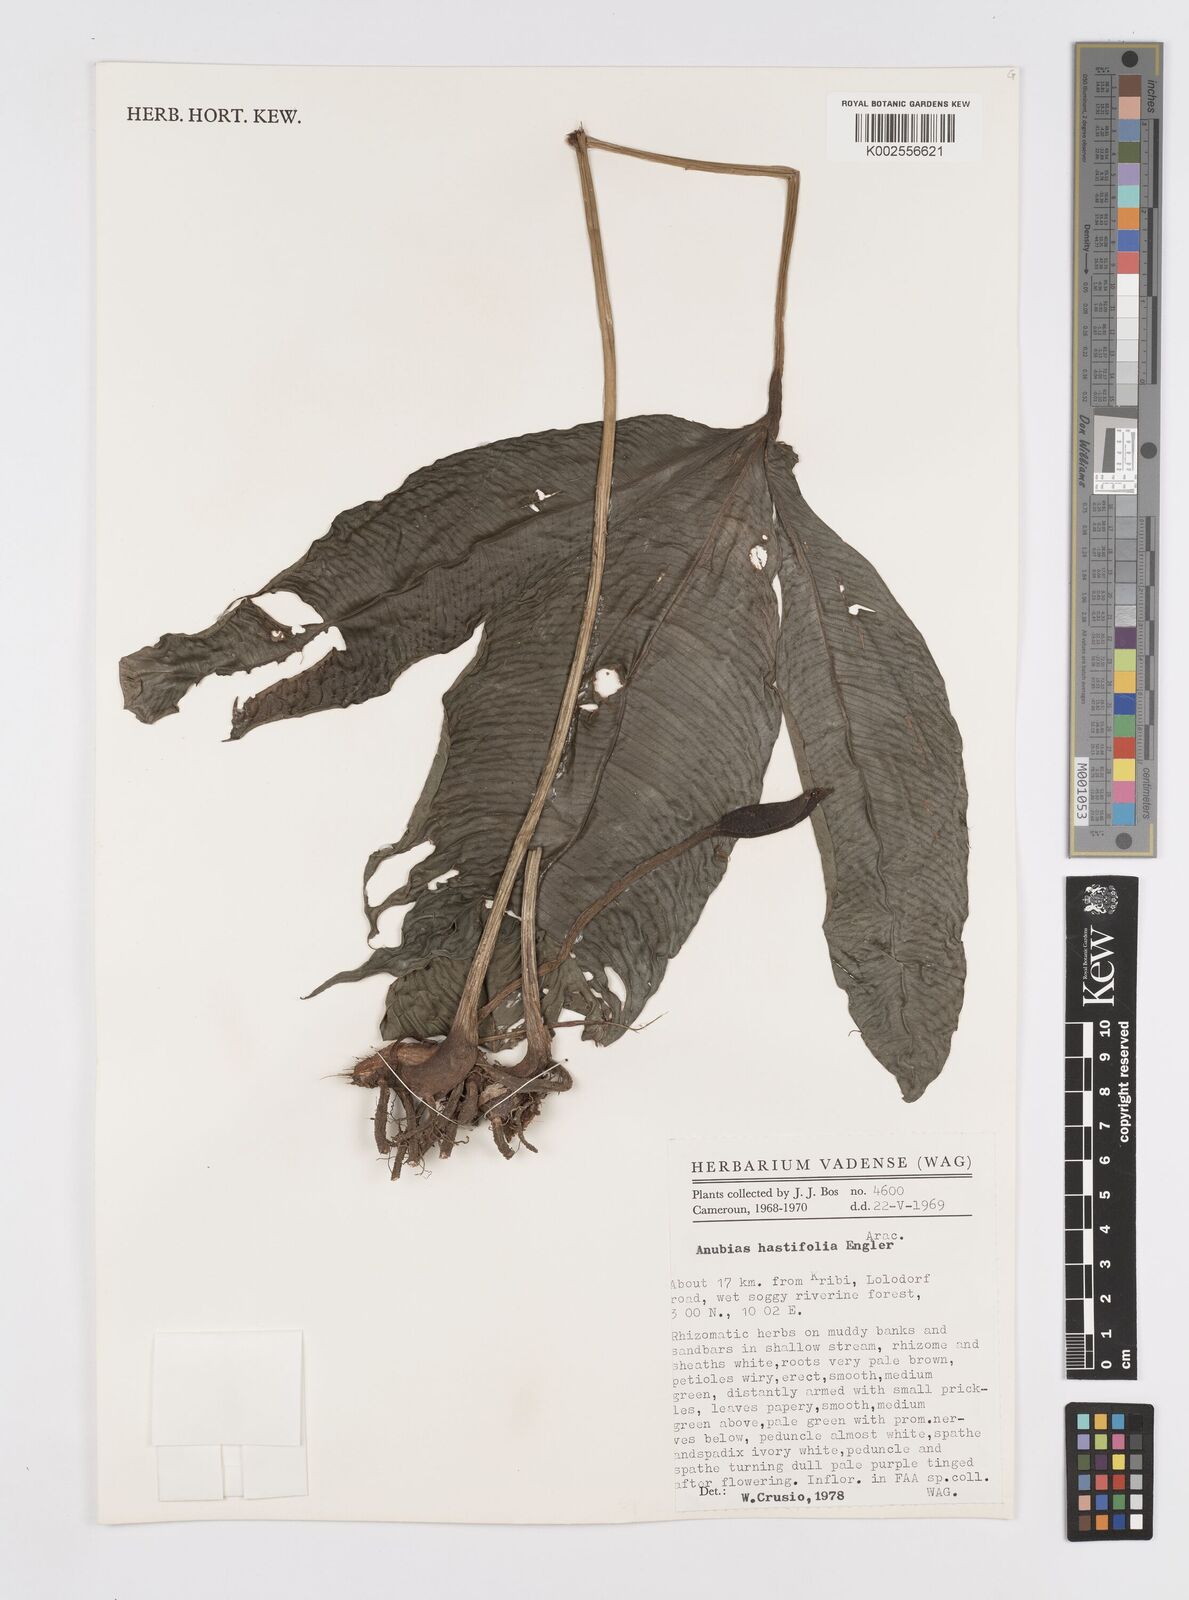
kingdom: Plantae
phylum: Tracheophyta
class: Liliopsida
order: Alismatales
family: Araceae
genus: Anubias
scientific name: Anubias gilletii
